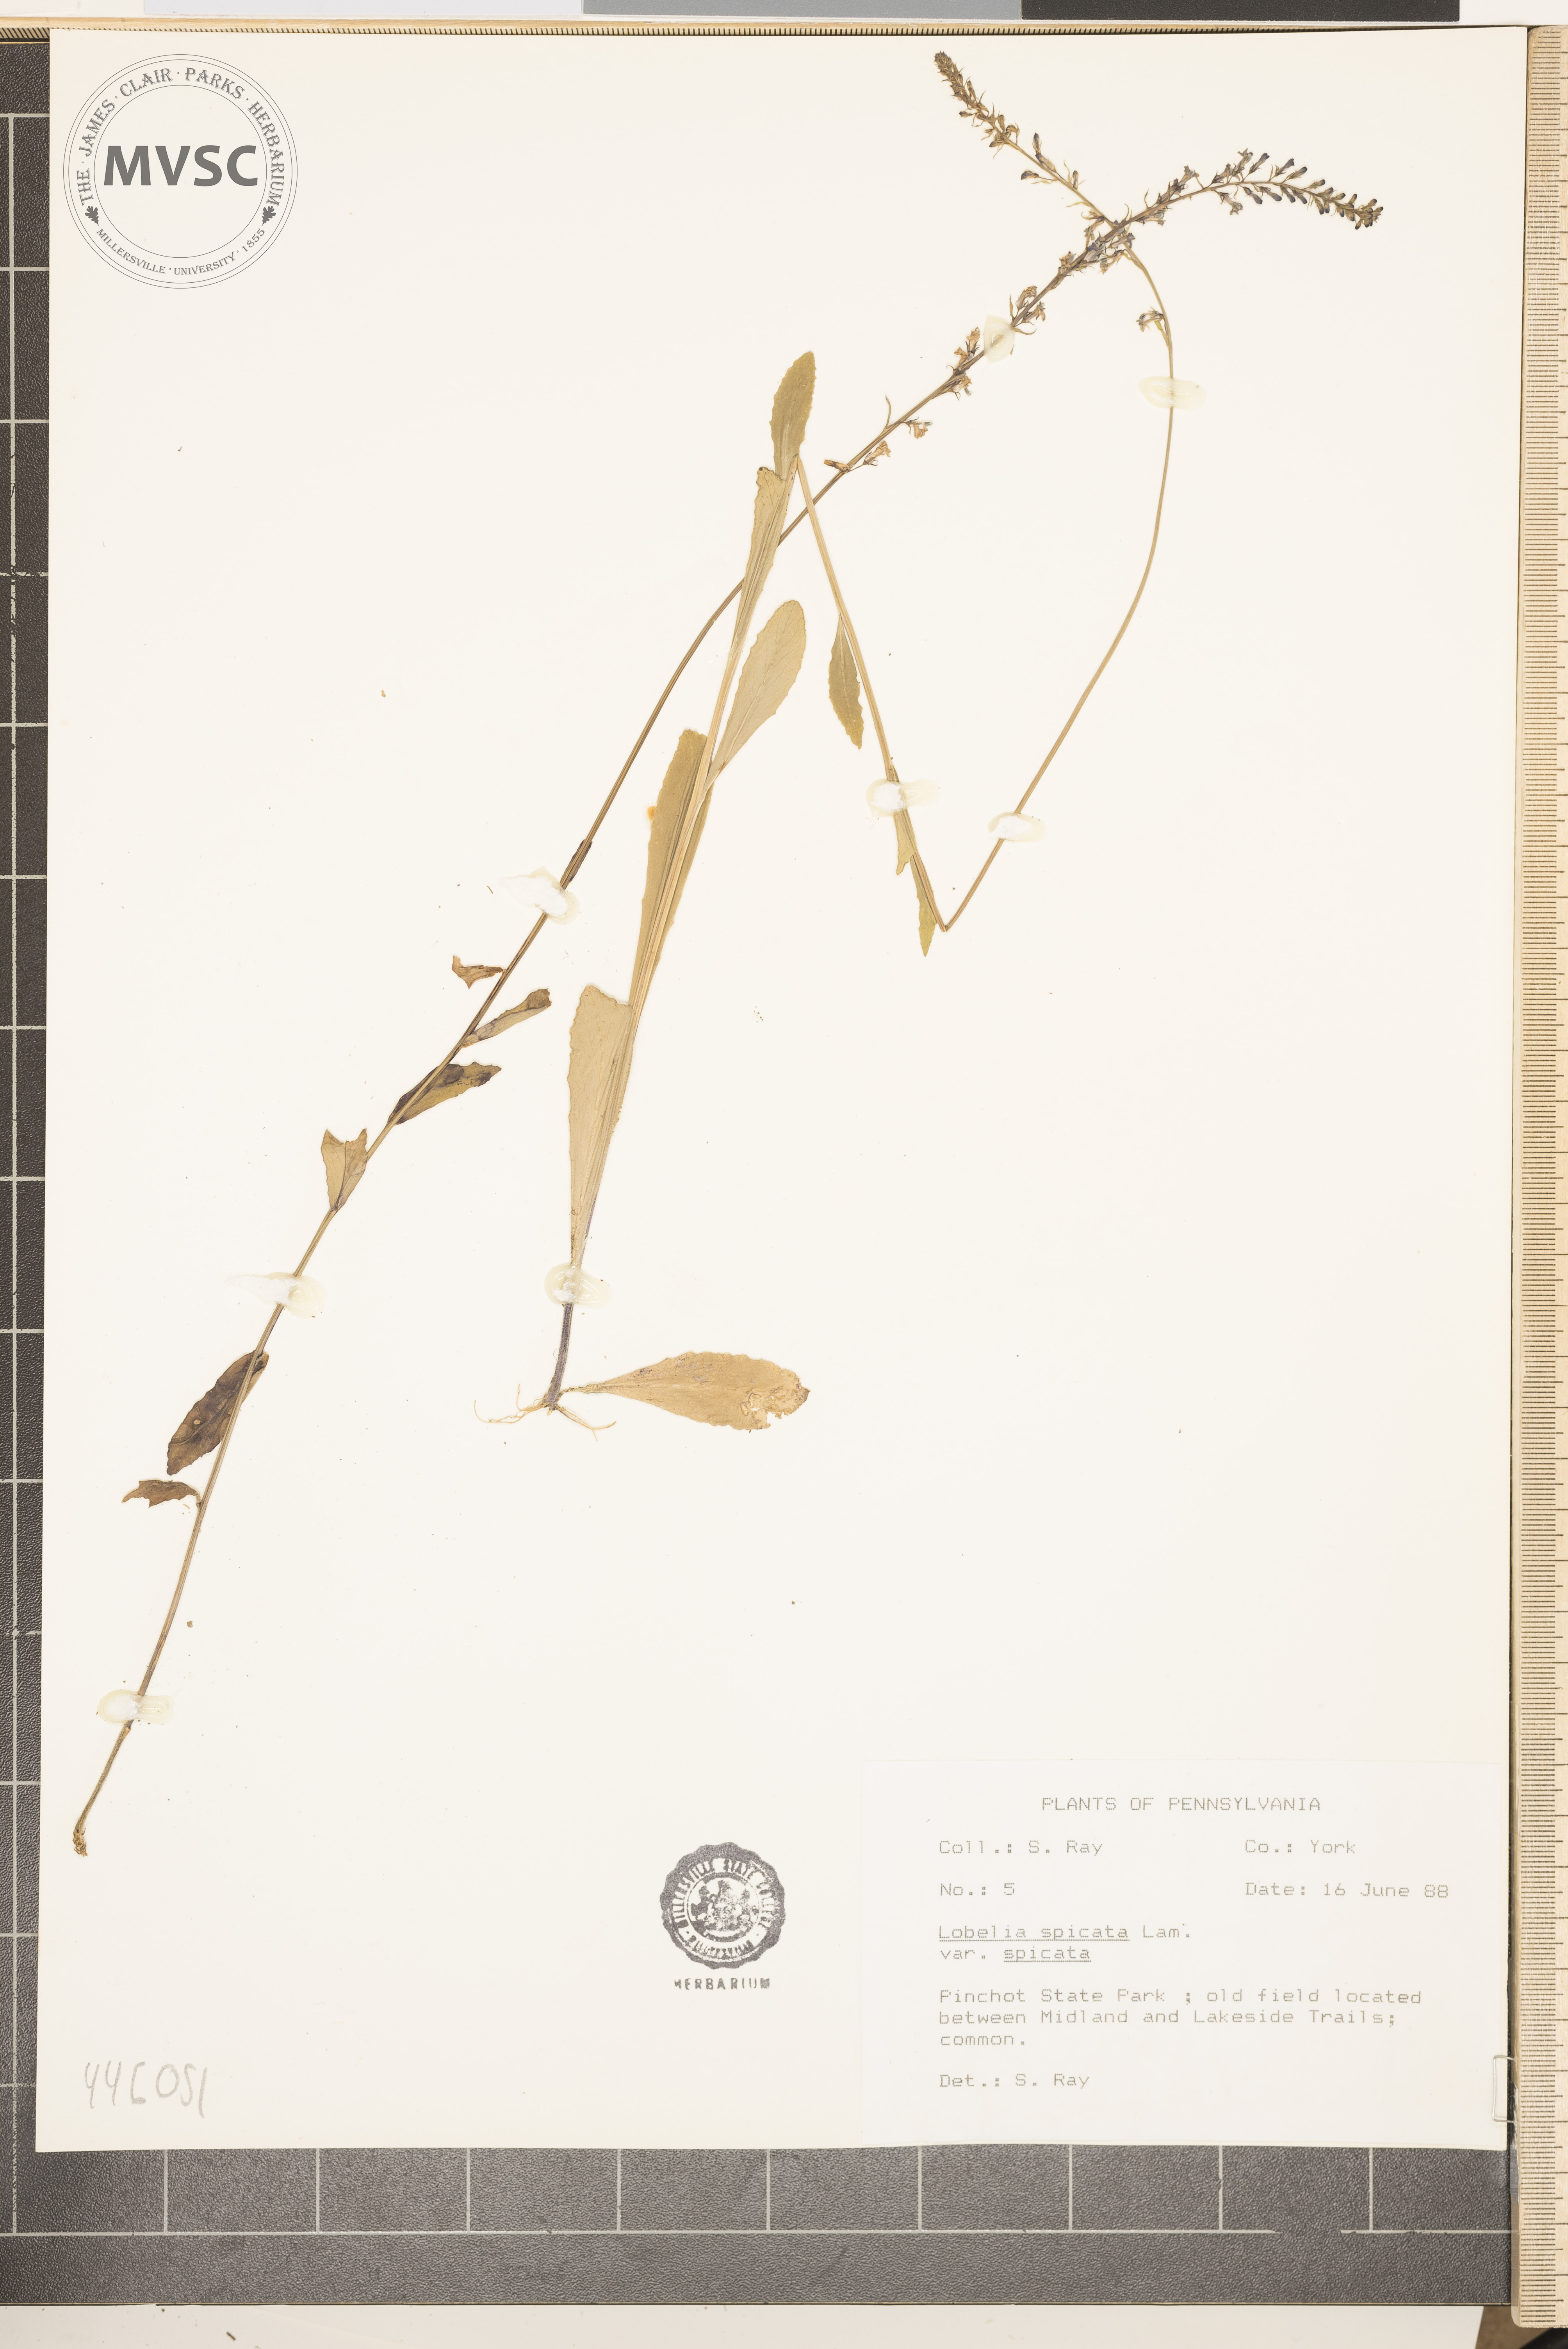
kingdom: Plantae
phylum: Tracheophyta
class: Magnoliopsida
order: Asterales
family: Campanulaceae
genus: Lobelia
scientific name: Lobelia spicata
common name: Pale-spike lobelia
